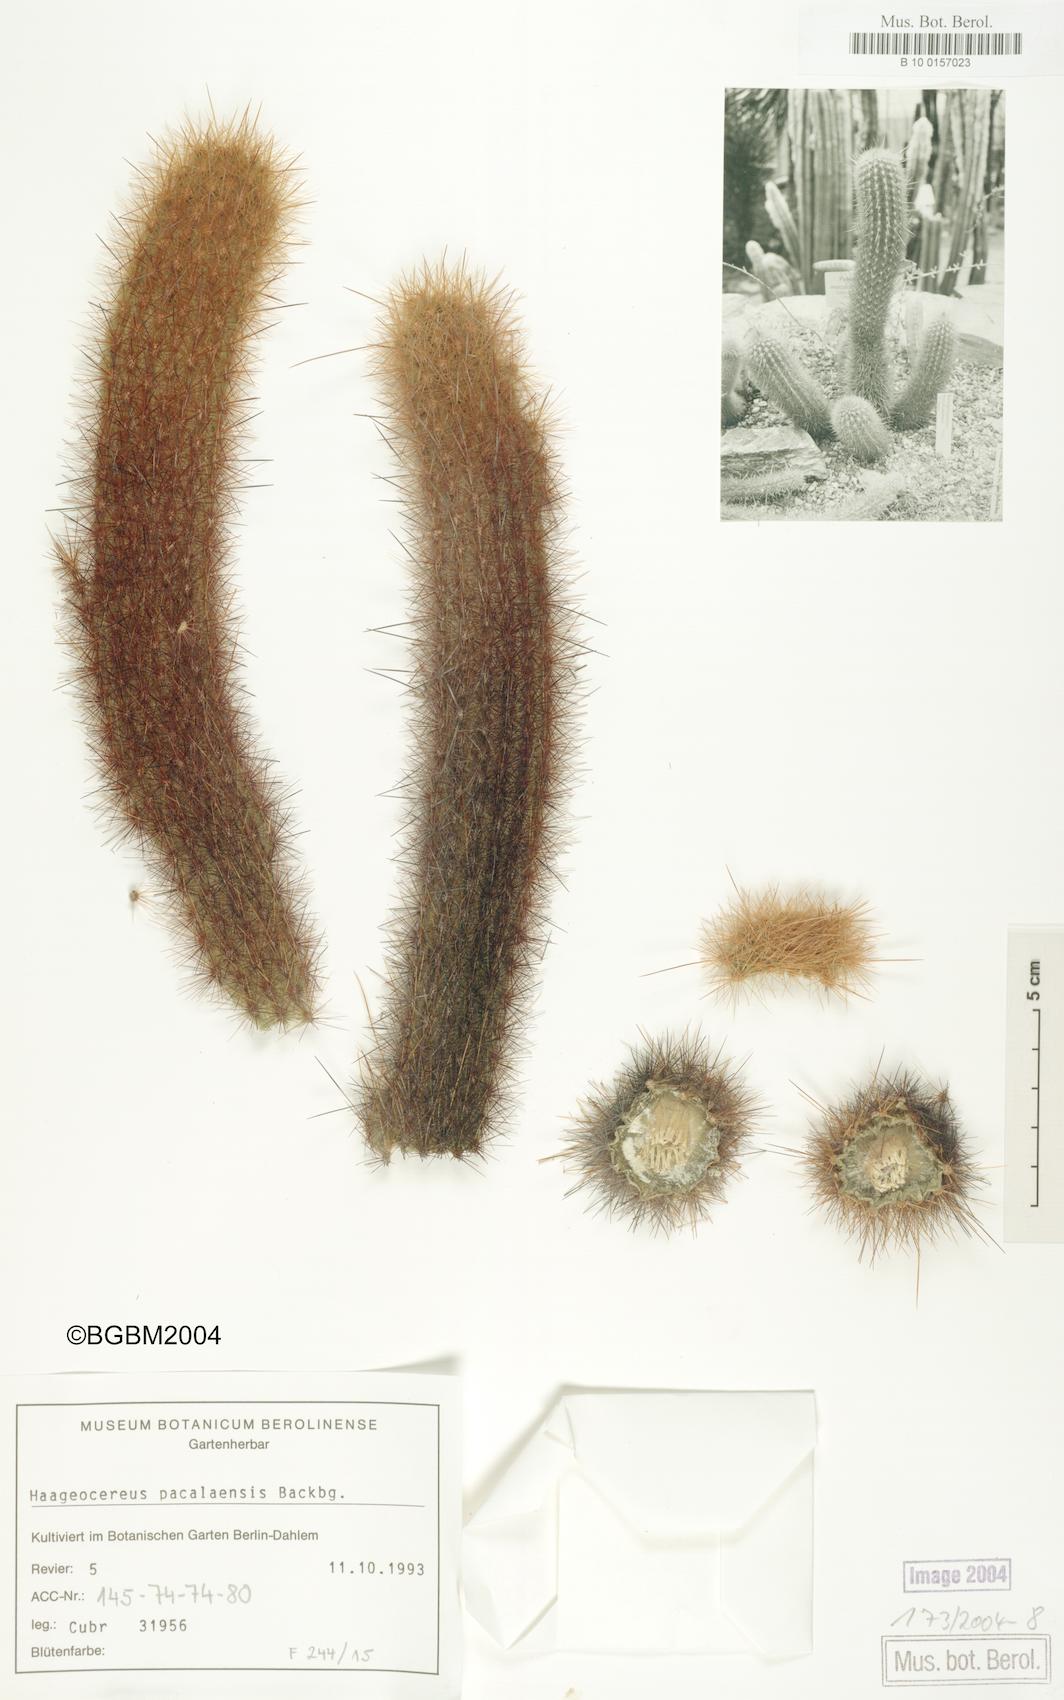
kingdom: Plantae
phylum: Tracheophyta
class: Magnoliopsida
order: Caryophyllales
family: Cactaceae
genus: Haageocereus
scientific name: Haageocereus pacalaensis
